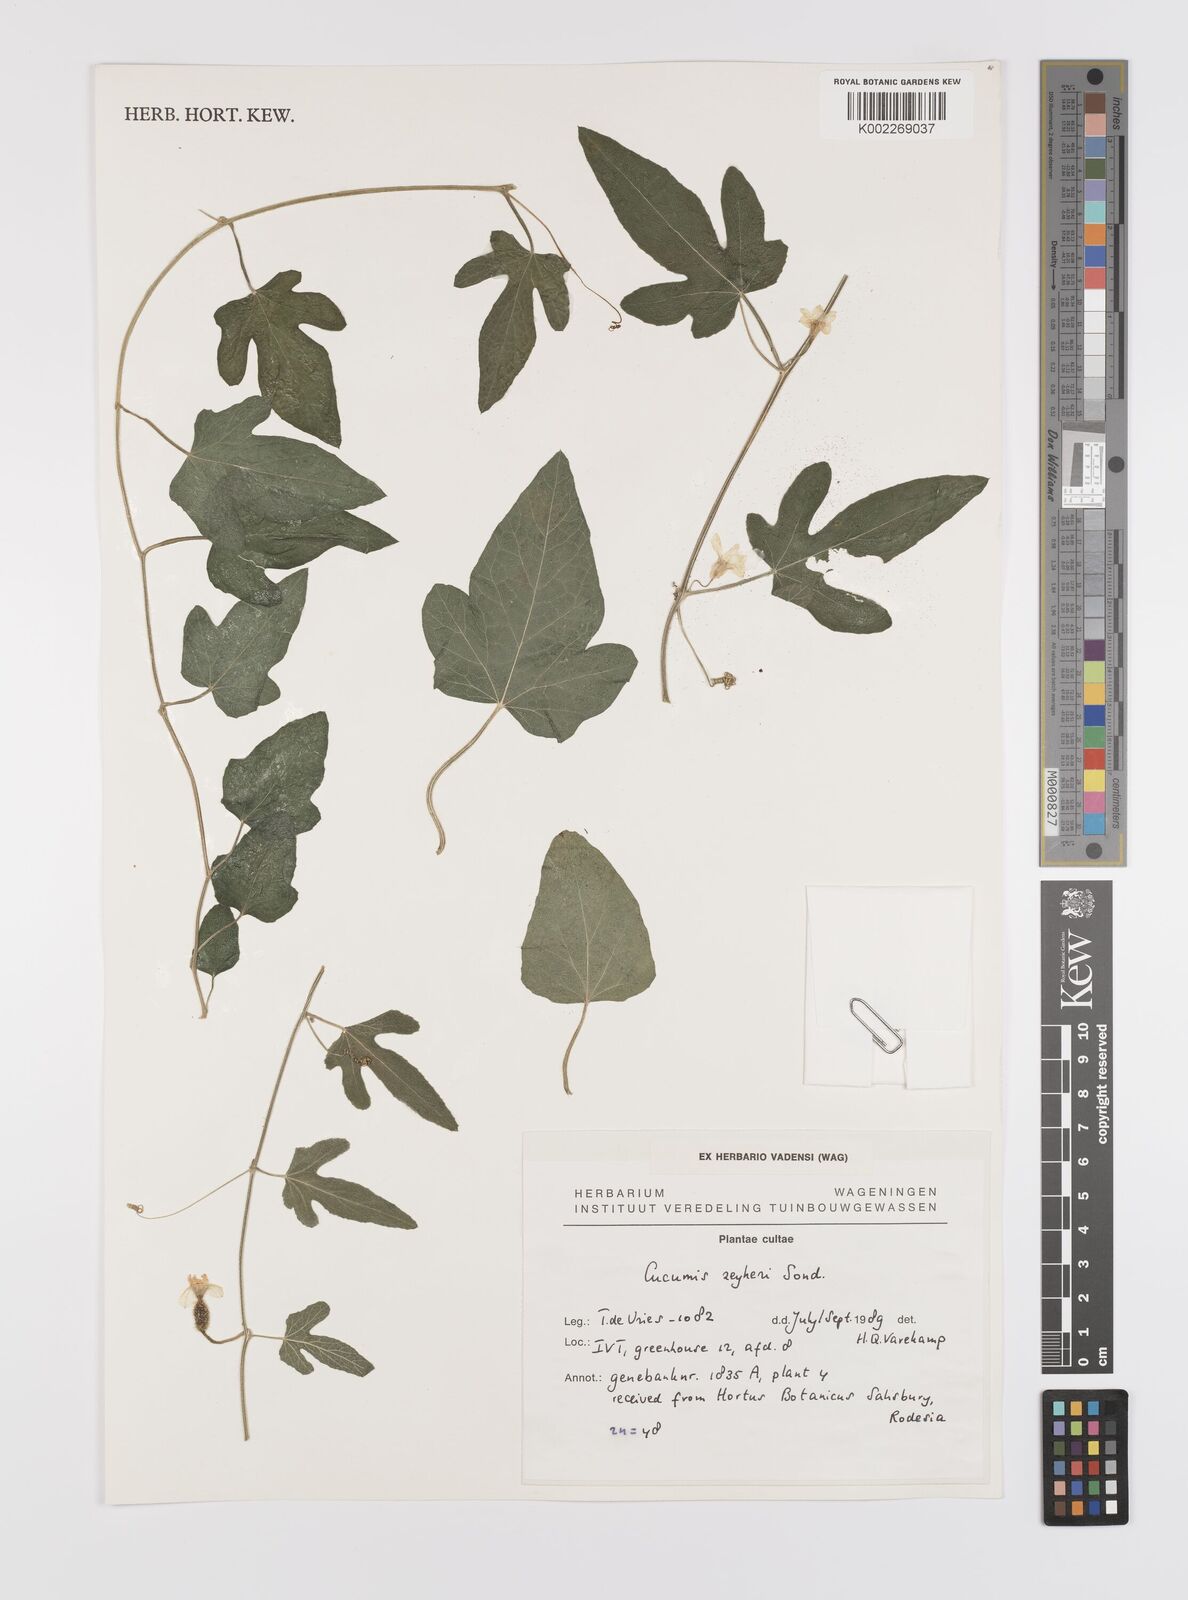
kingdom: Plantae
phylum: Tracheophyta
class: Magnoliopsida
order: Cucurbitales
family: Cucurbitaceae
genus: Cucumis
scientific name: Cucumis sativus
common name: Cucumber
